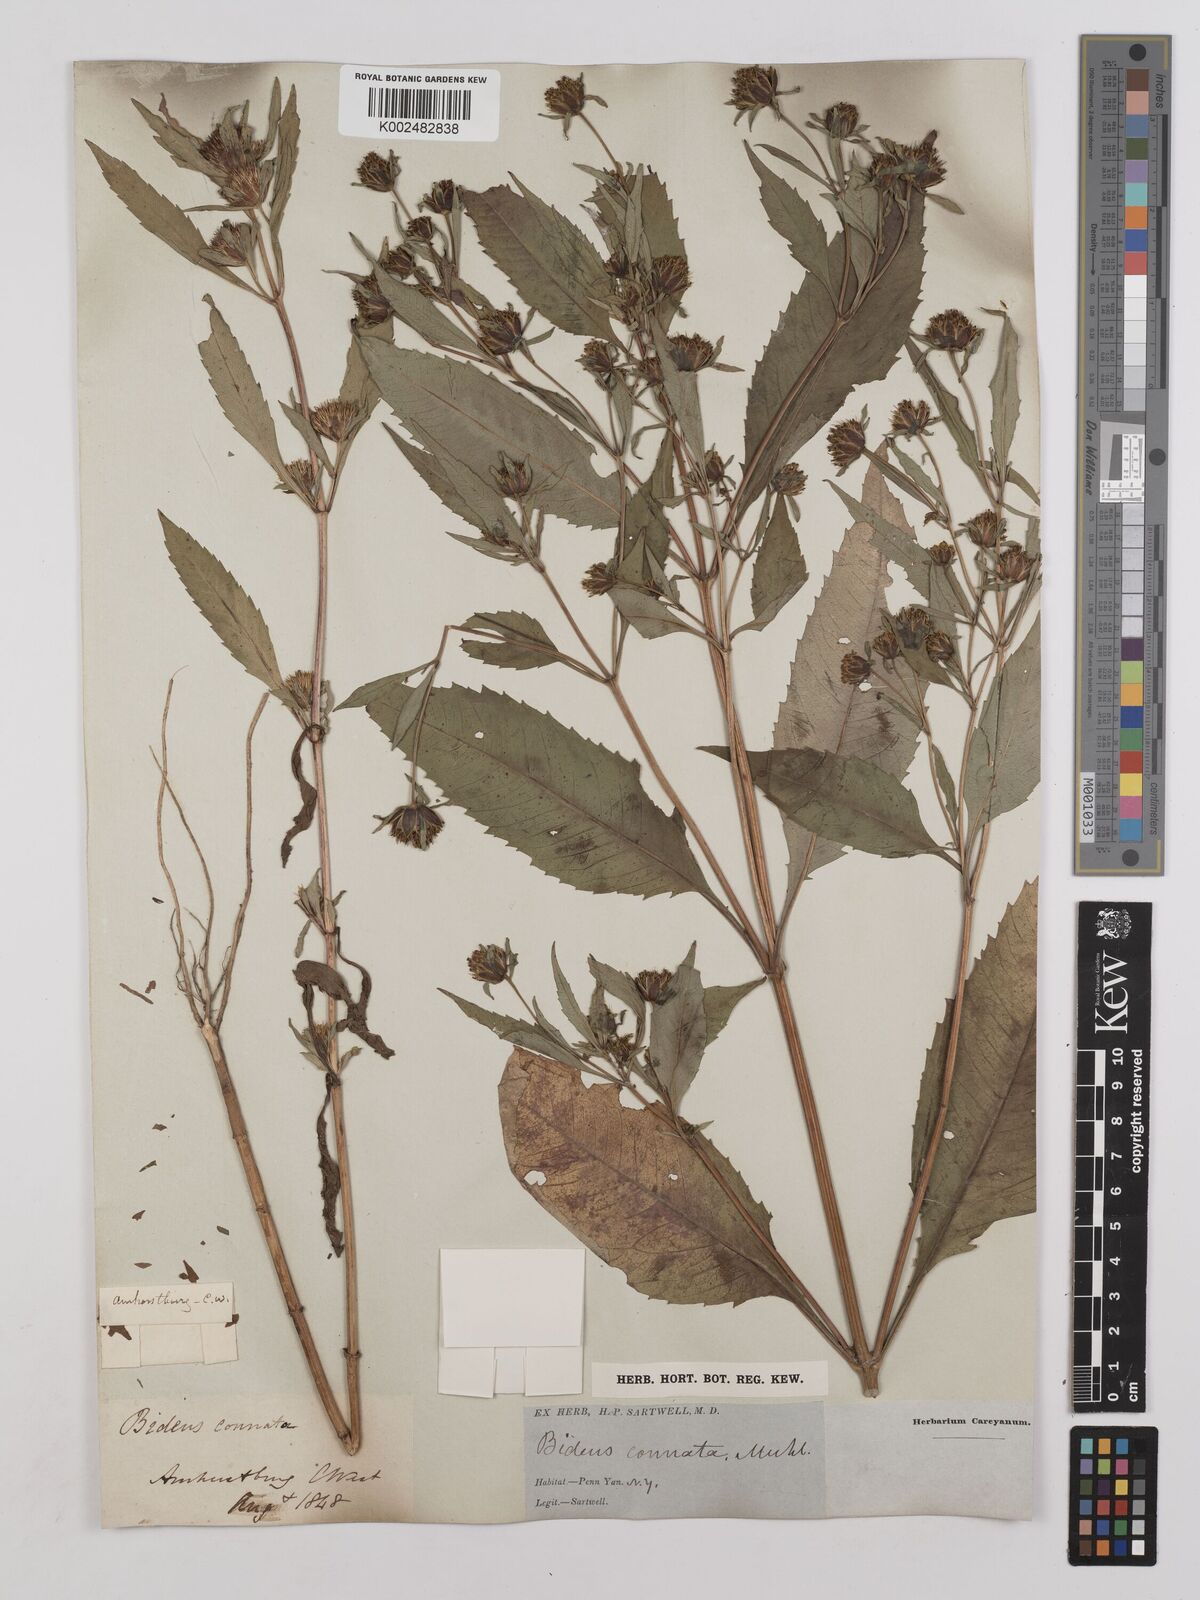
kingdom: Plantae
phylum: Tracheophyta
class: Magnoliopsida
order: Asterales
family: Asteraceae
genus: Bidens
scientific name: Bidens connata
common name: London bur-marigold
